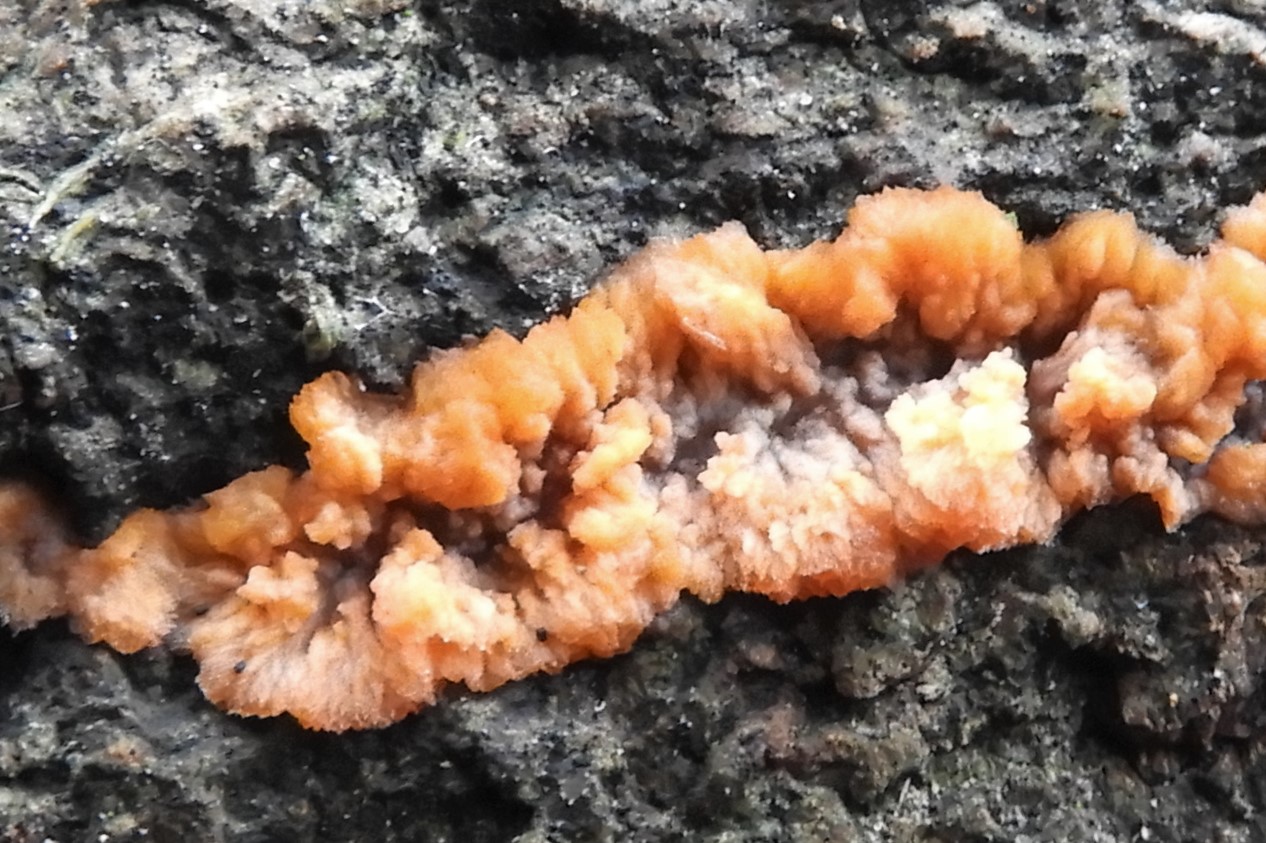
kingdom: Fungi
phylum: Basidiomycota
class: Agaricomycetes
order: Polyporales
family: Meruliaceae
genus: Phlebia
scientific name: Phlebia radiata
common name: stråle-åresvamp
